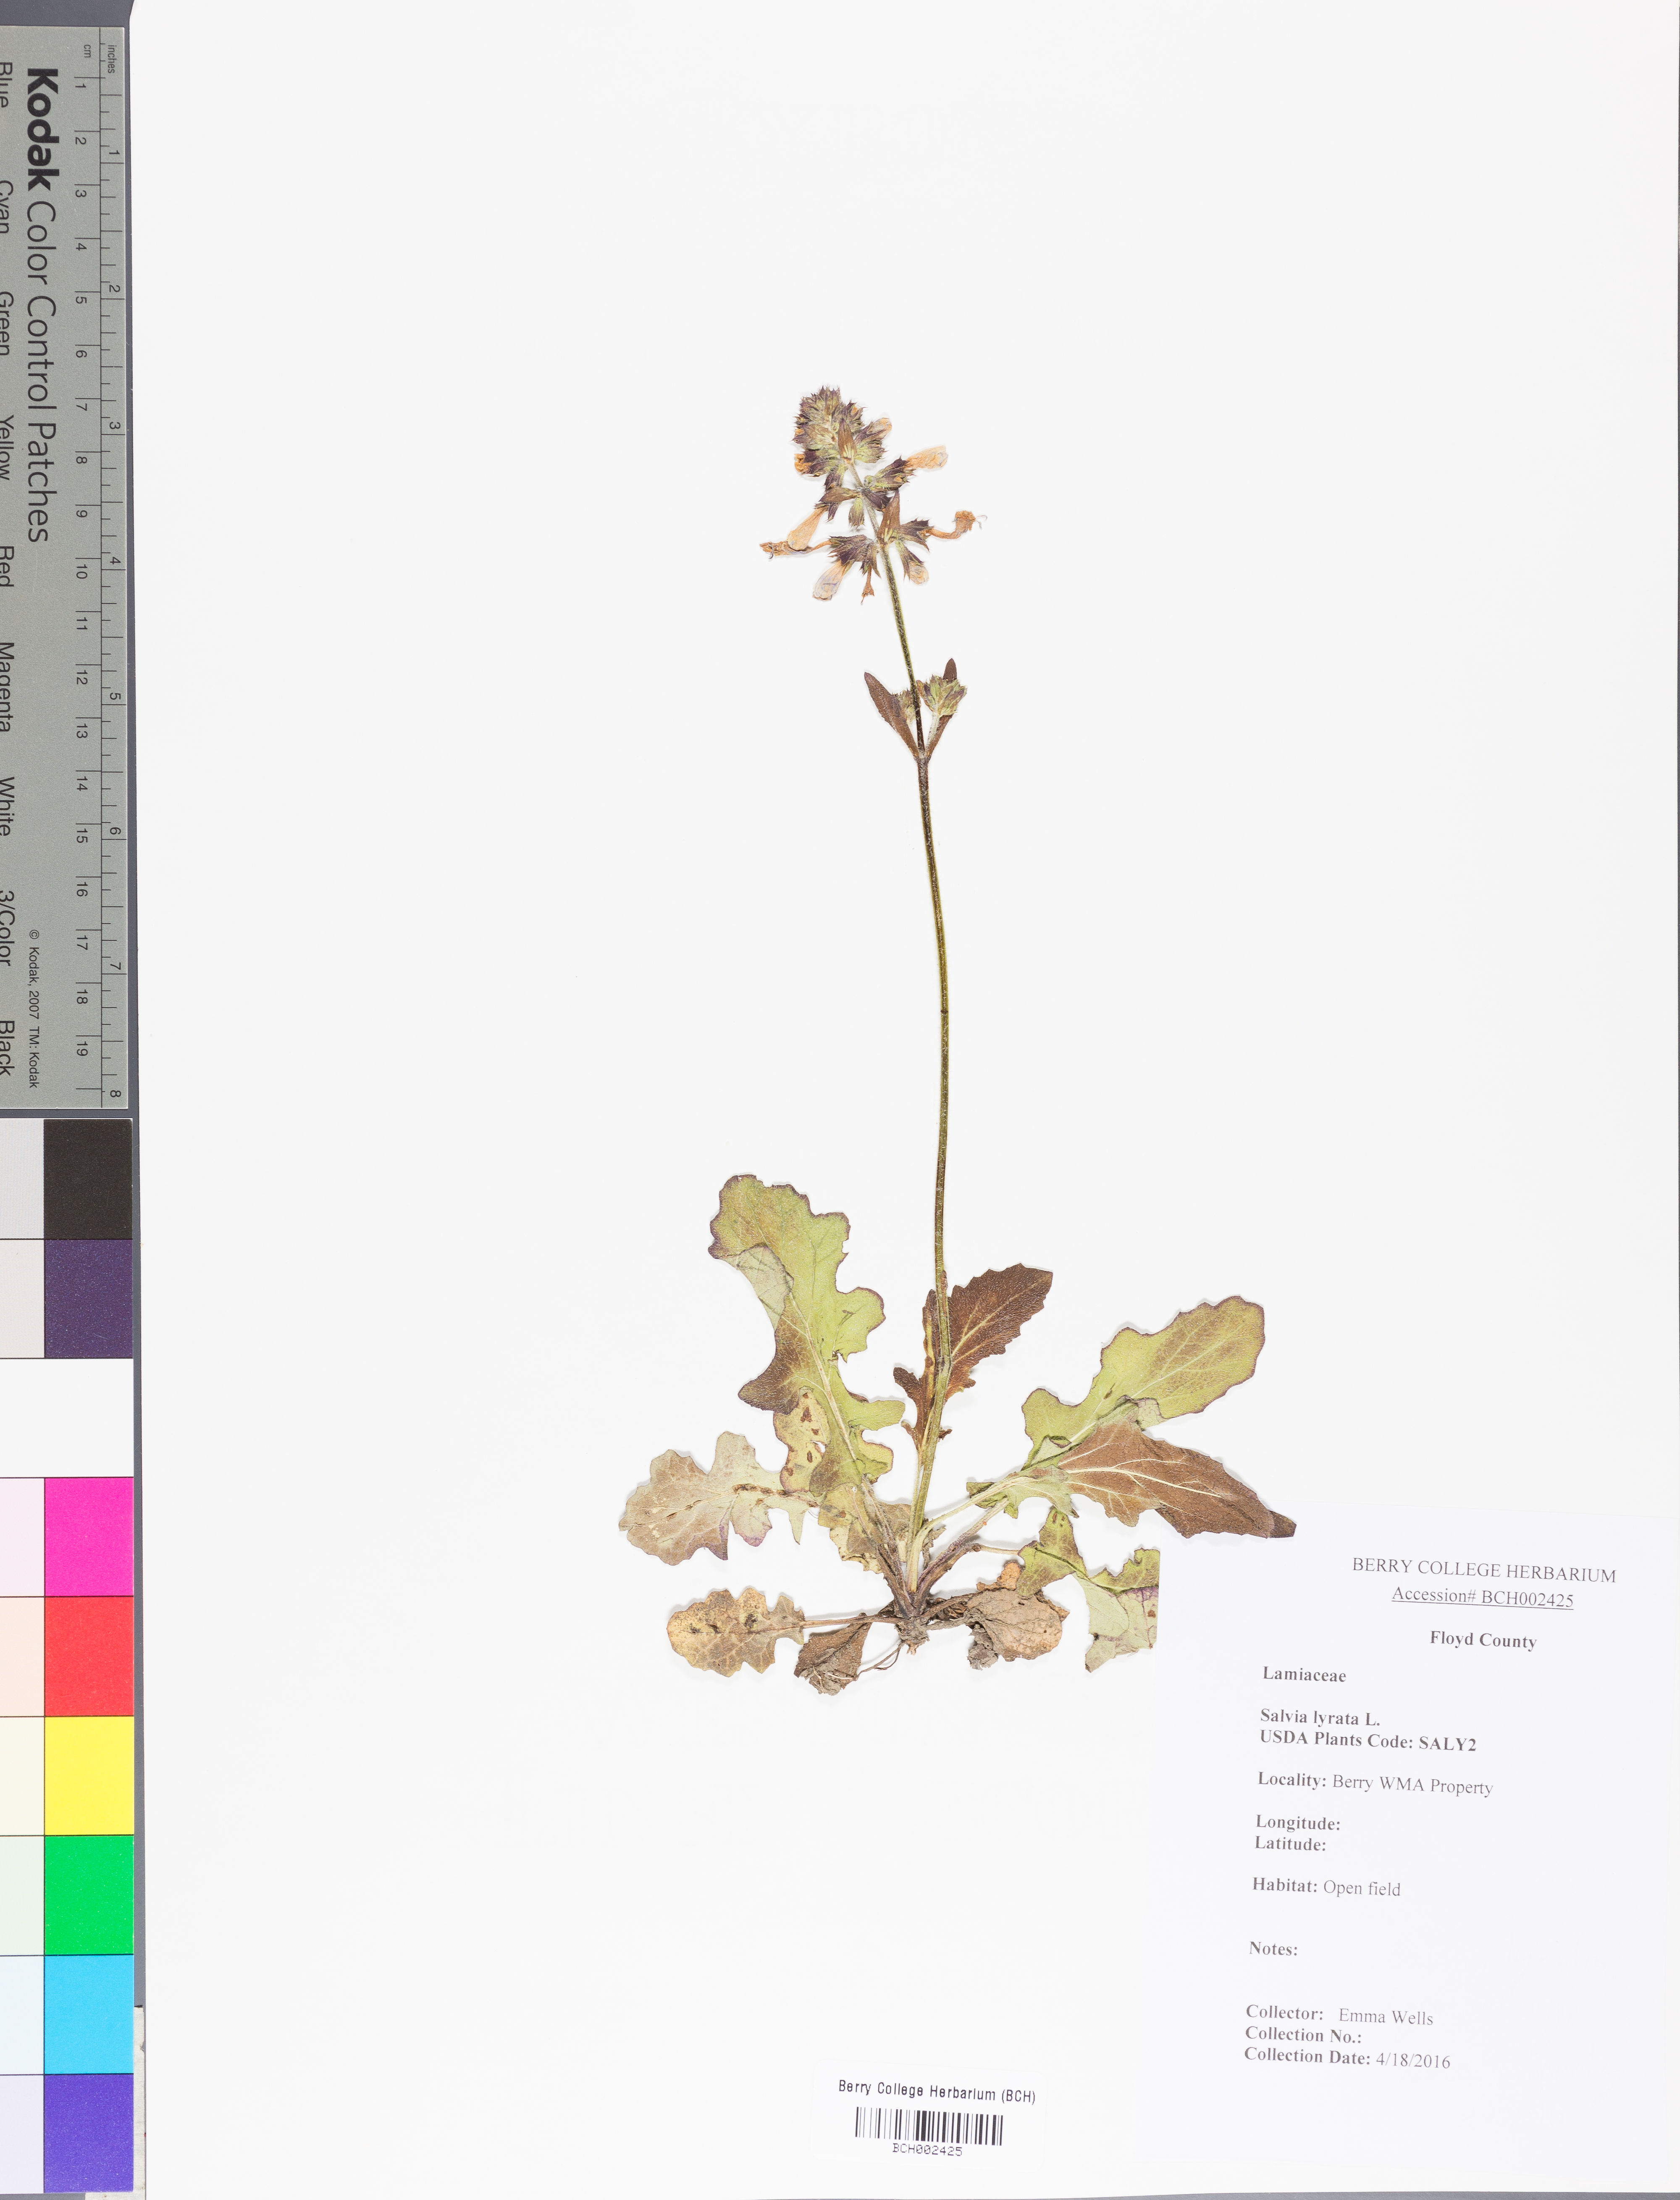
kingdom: Plantae
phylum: Tracheophyta
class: Magnoliopsida
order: Lamiales
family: Lamiaceae
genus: Salvia
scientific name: Salvia lyrata
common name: Cancerweed
